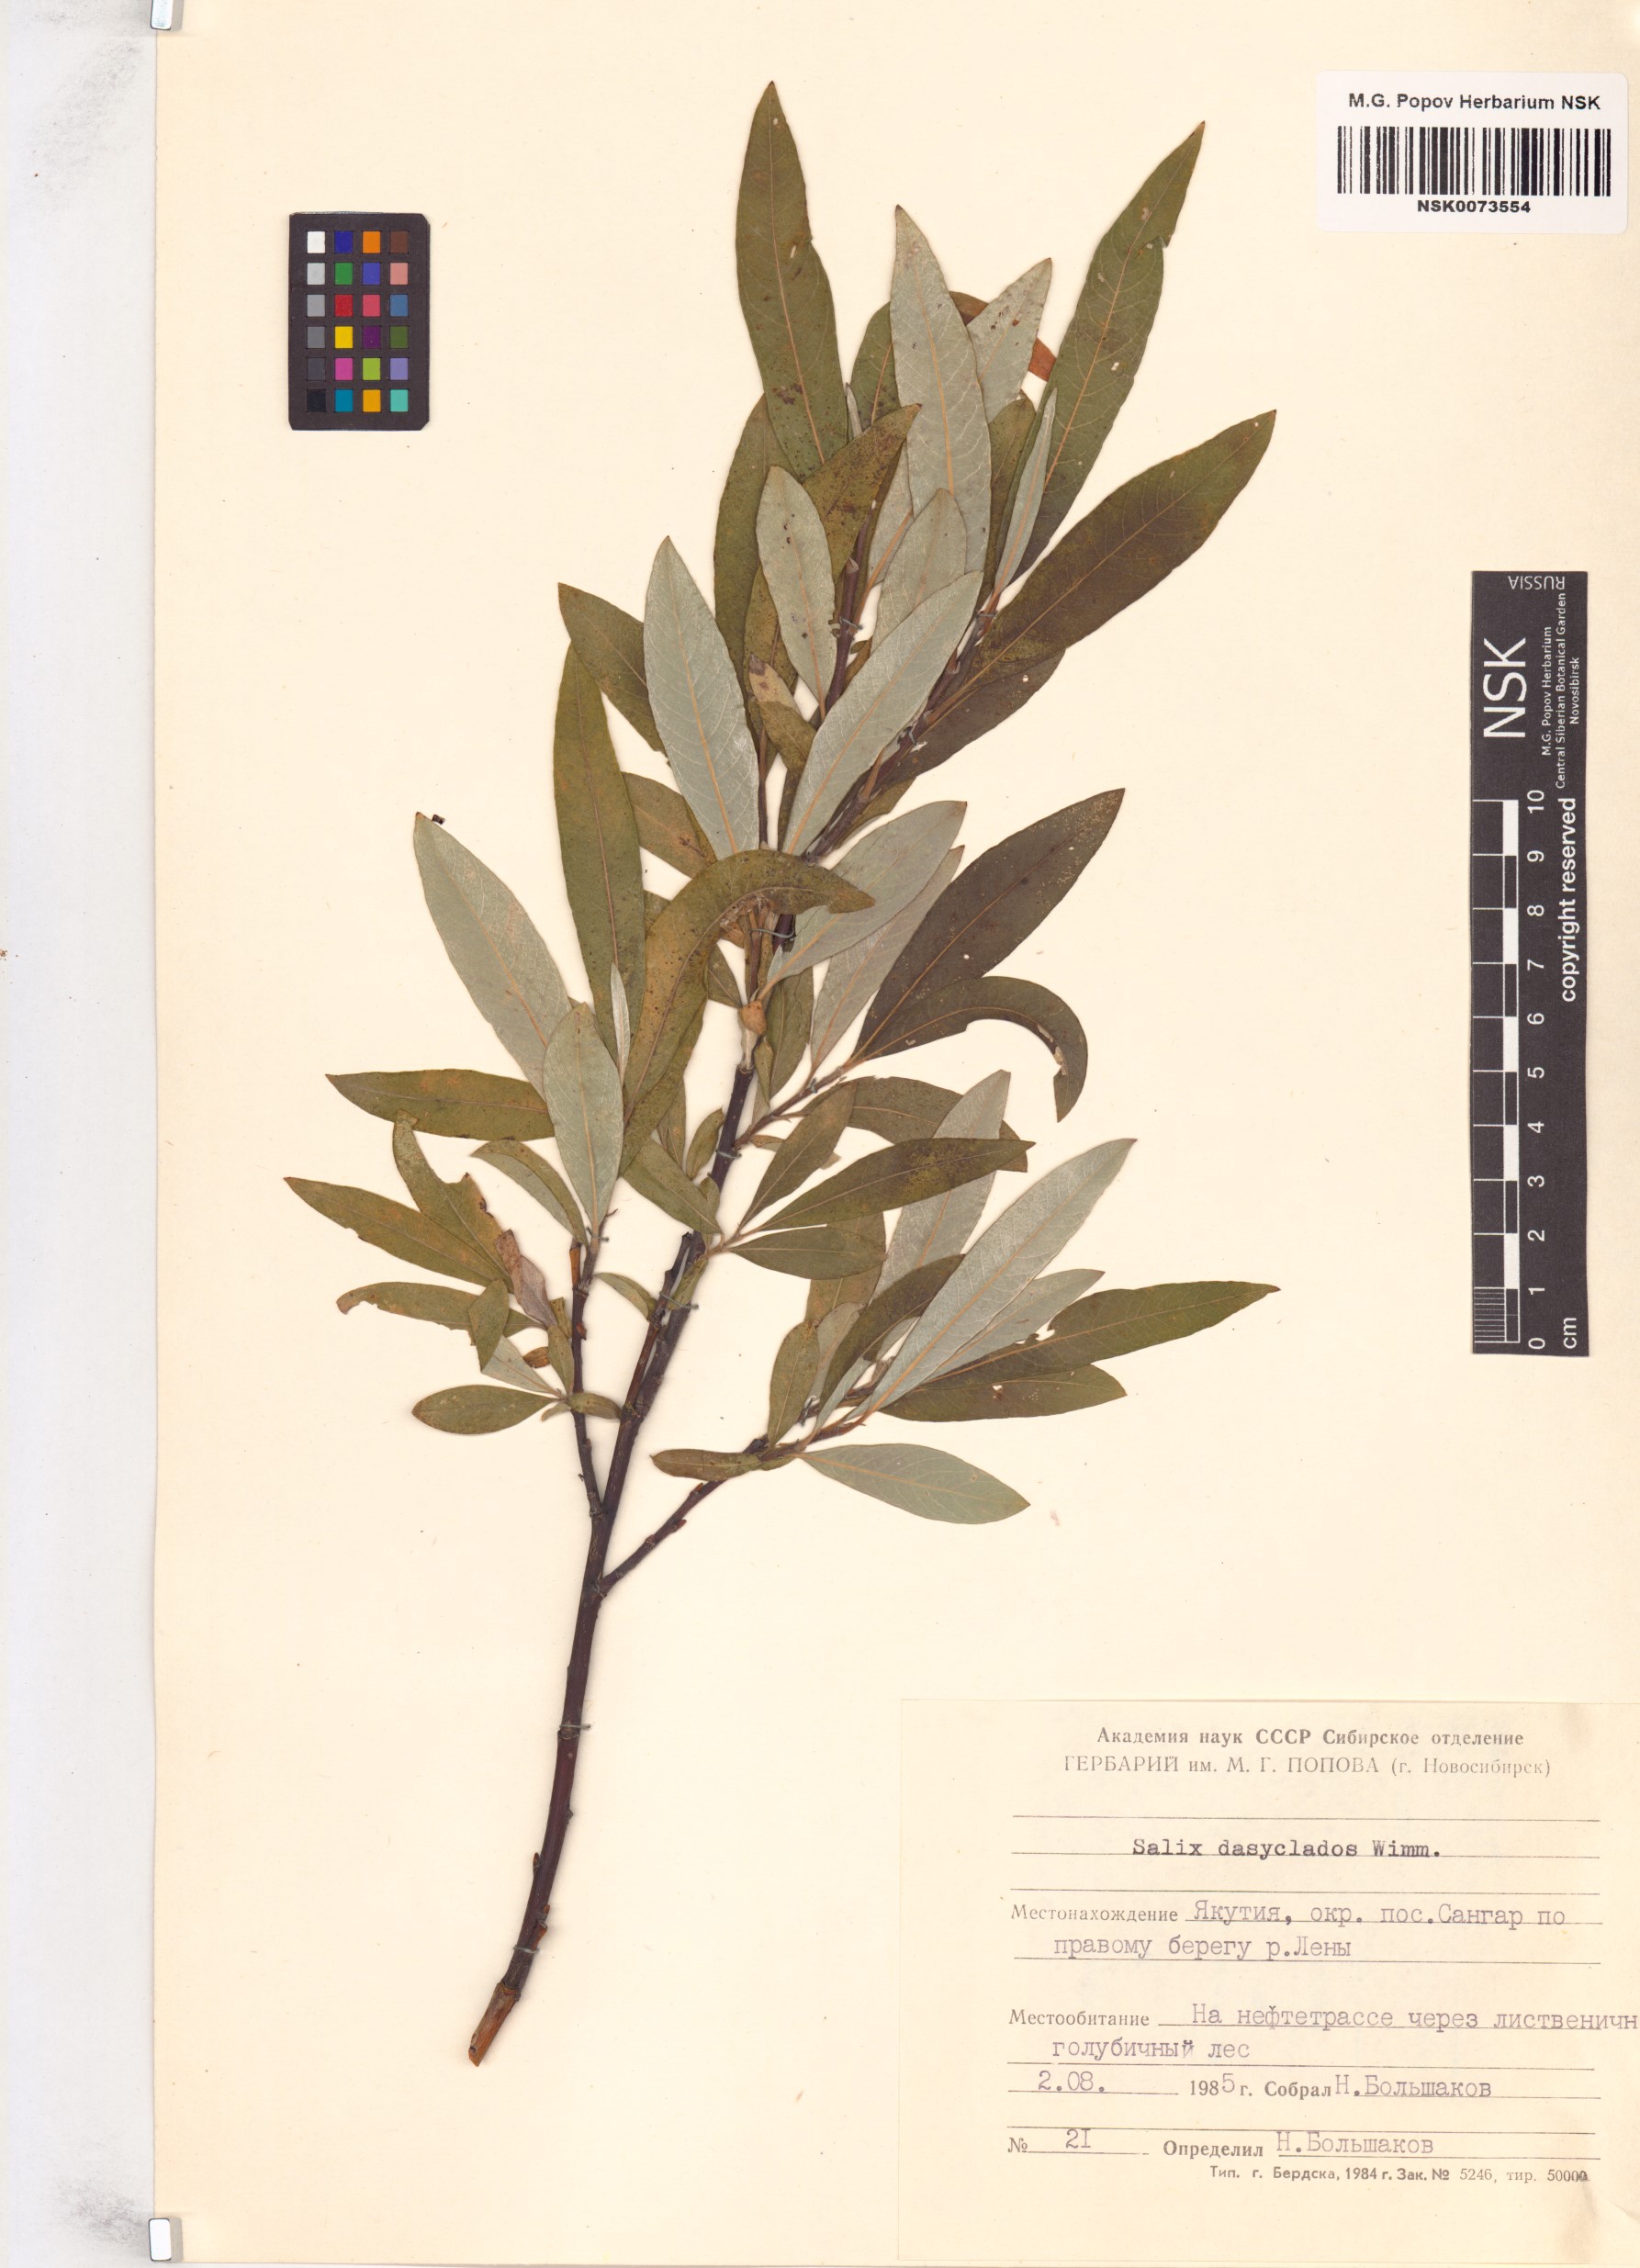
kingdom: Plantae
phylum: Tracheophyta
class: Magnoliopsida
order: Malpighiales
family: Salicaceae
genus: Salix
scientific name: Salix gmelinii
